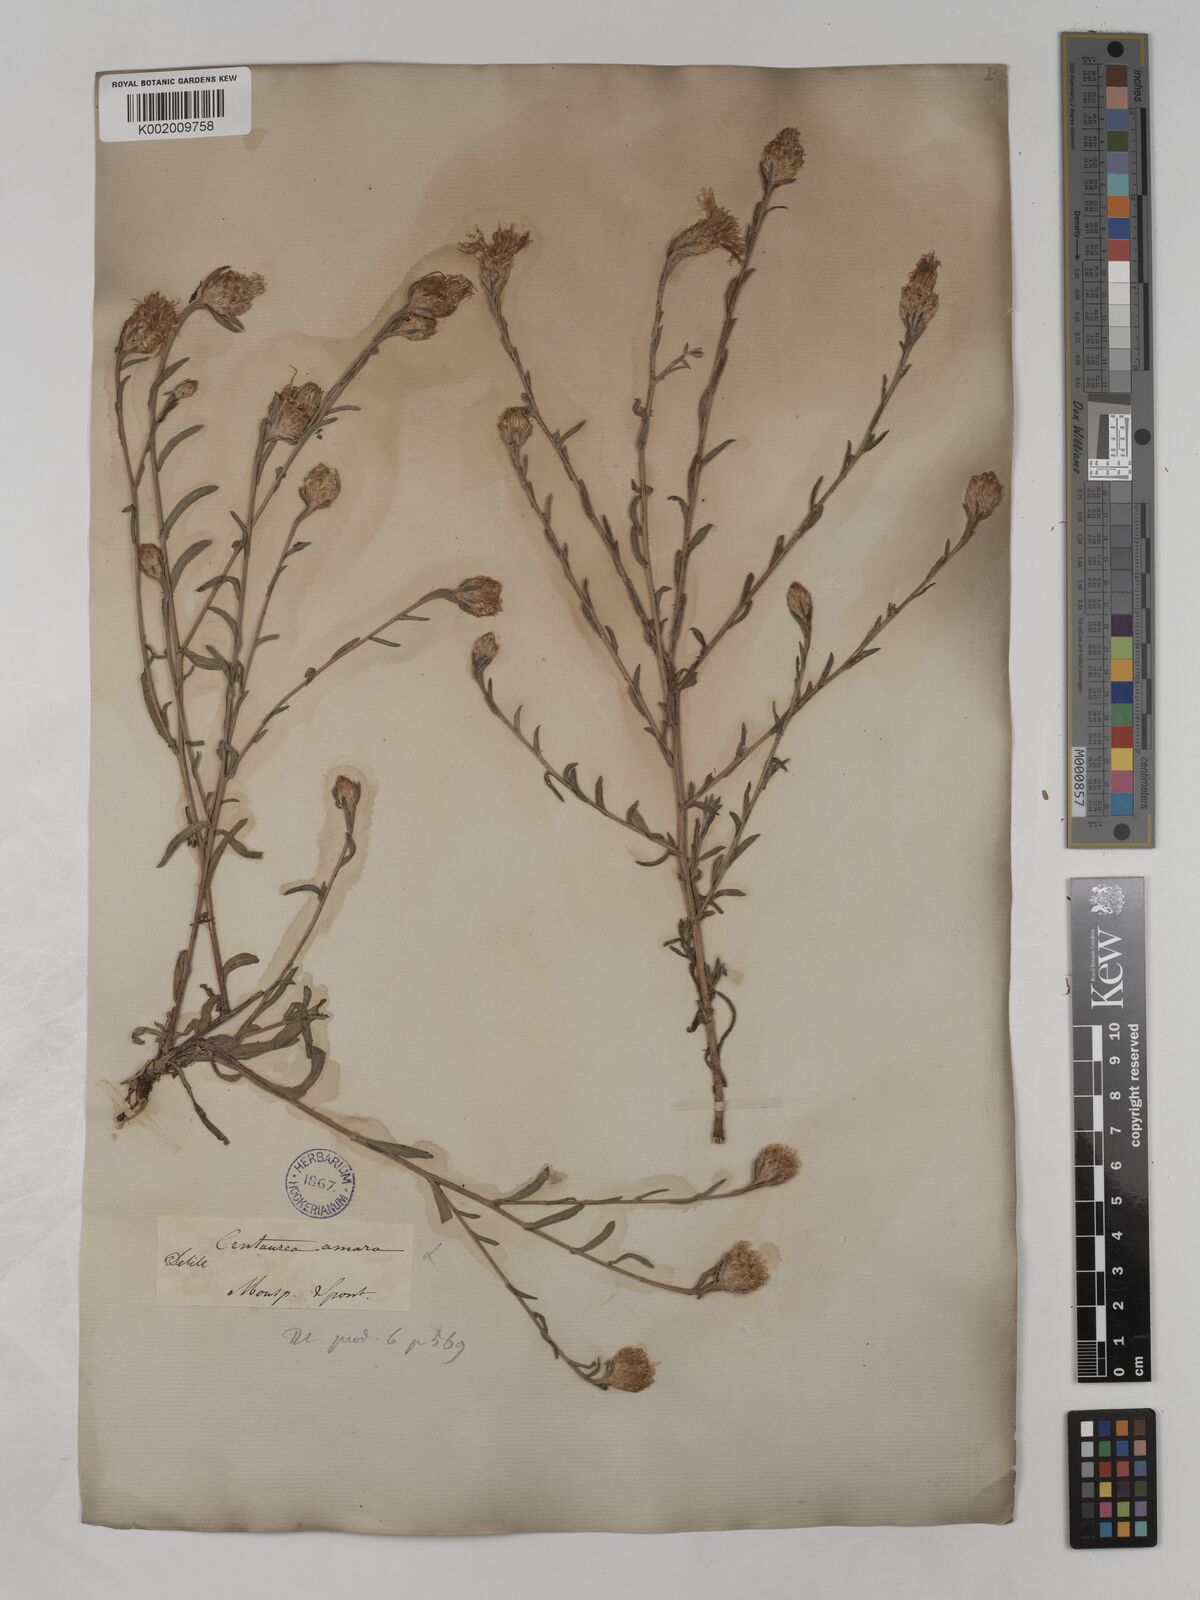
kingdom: Plantae
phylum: Tracheophyta
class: Magnoliopsida
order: Asterales
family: Asteraceae
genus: Centaurea
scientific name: Centaurea timbalii
